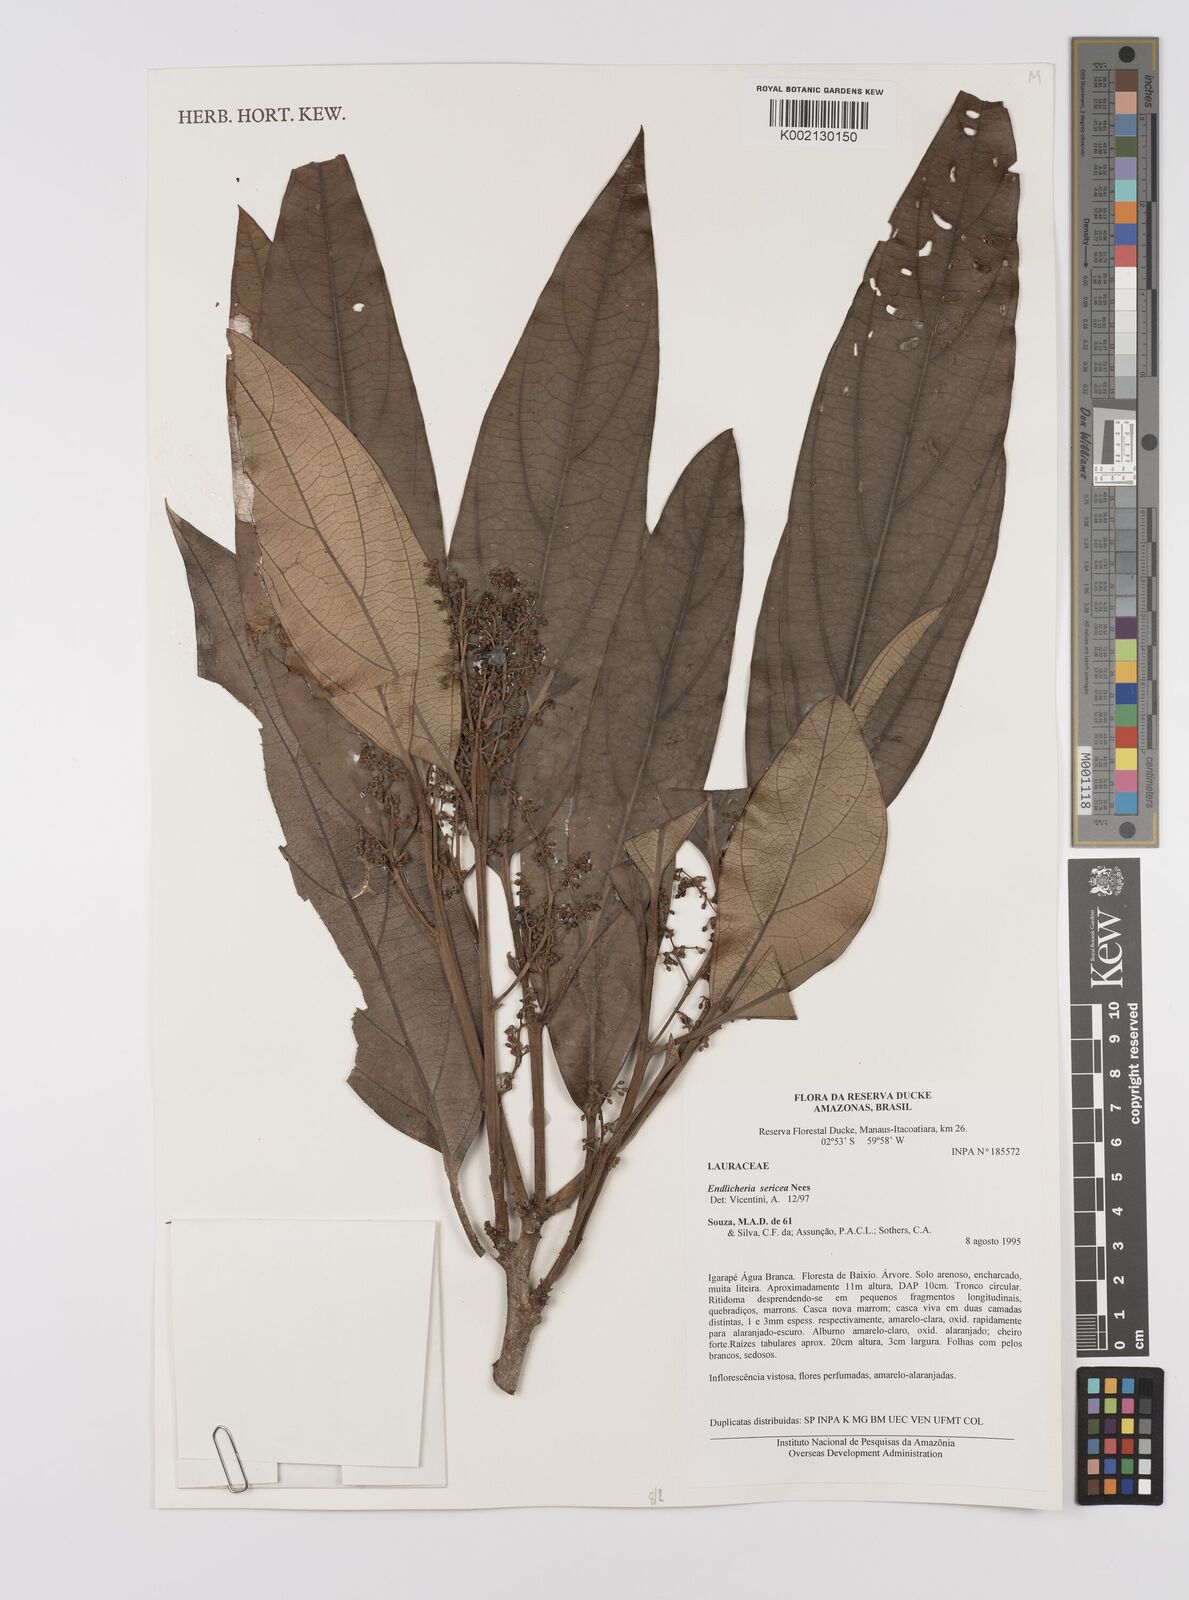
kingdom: Plantae
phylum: Tracheophyta
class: Magnoliopsida
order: Laurales
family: Lauraceae
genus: Endlicheria
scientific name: Endlicheria sericea
